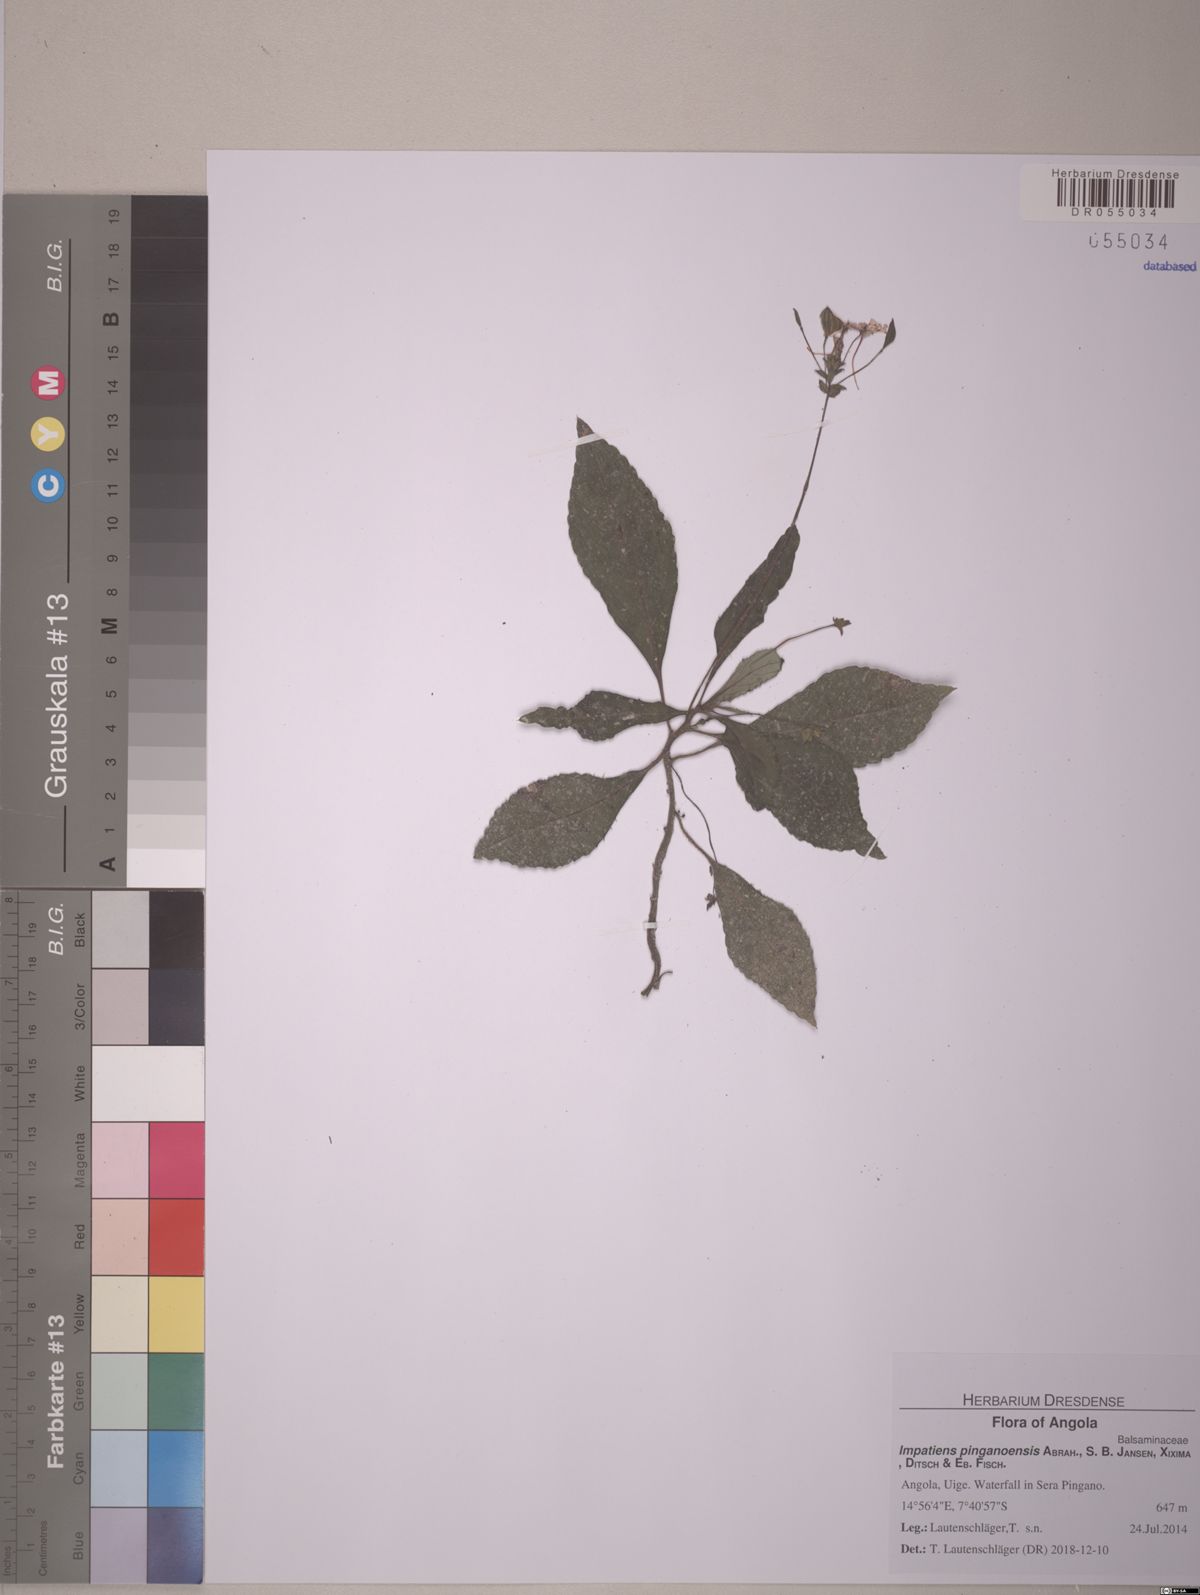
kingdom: Plantae
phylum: Tracheophyta
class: Magnoliopsida
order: Ericales
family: Balsaminaceae
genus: Impatiens
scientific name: Impatiens pinganoensis
